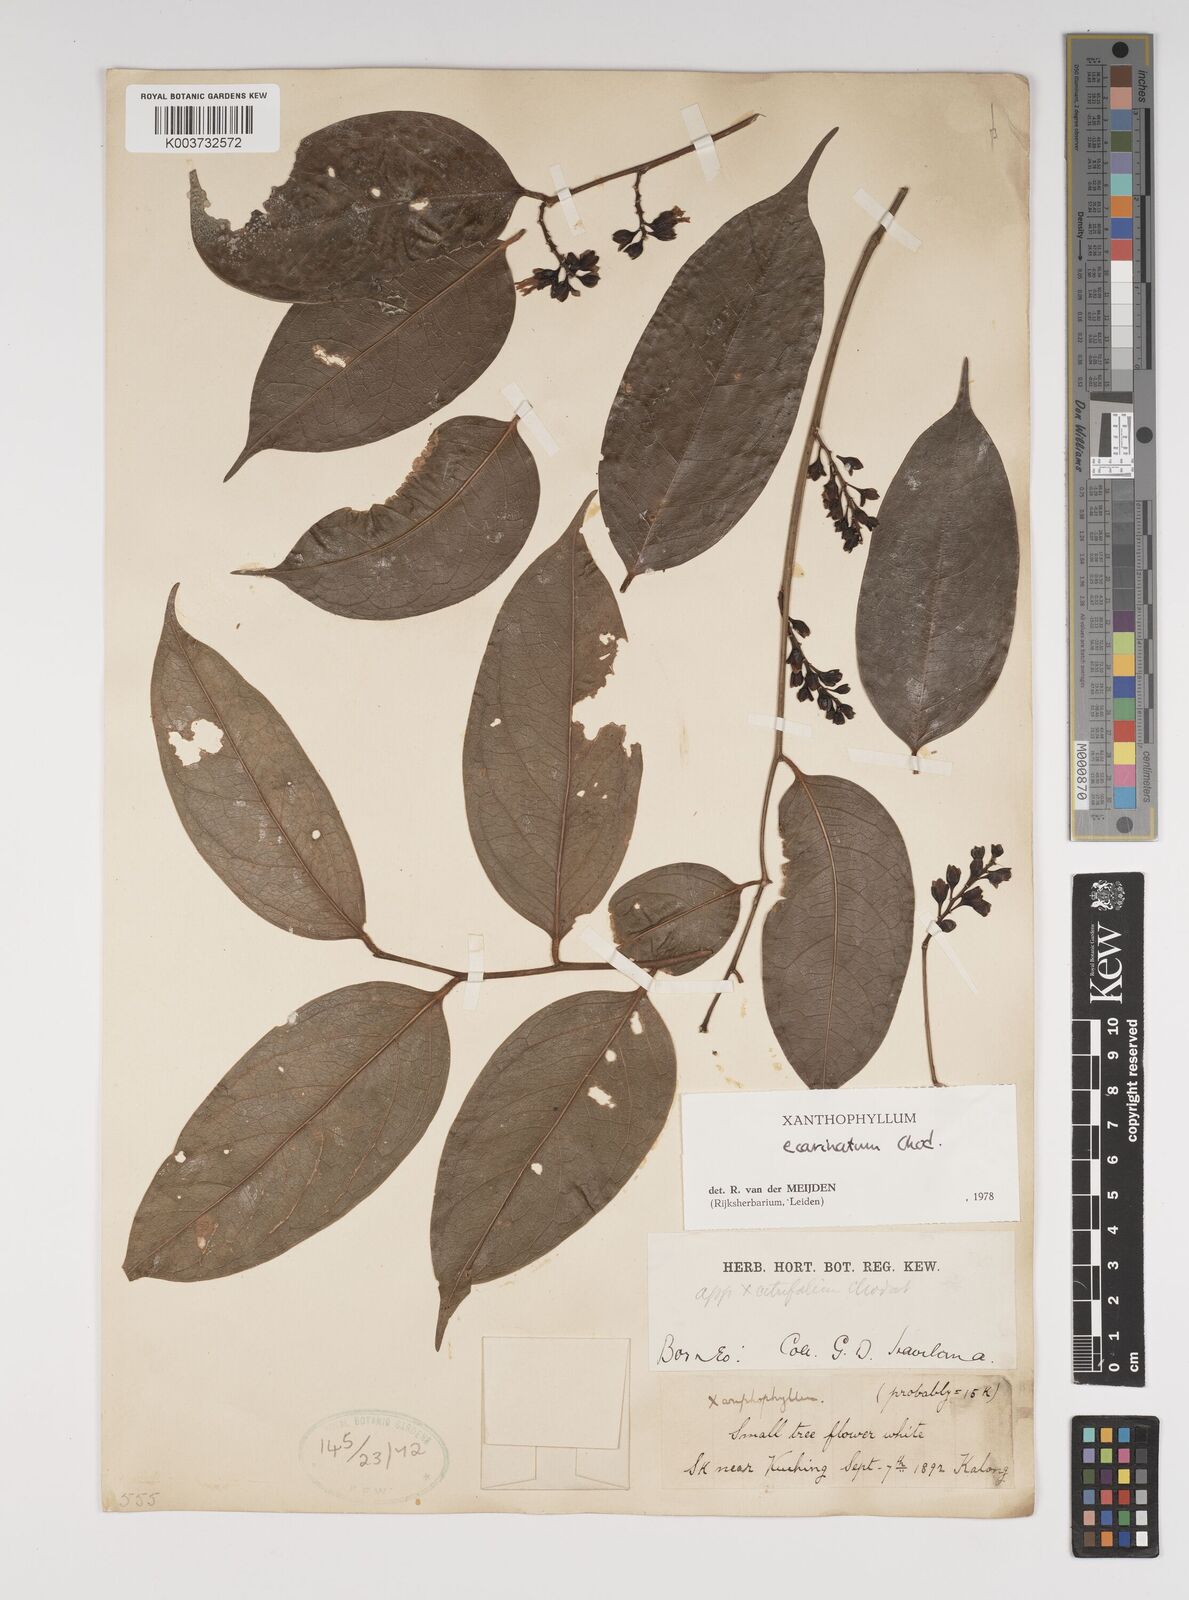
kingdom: Plantae
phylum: Tracheophyta
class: Magnoliopsida
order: Fabales
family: Polygalaceae
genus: Xanthophyllum
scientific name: Xanthophyllum ecarinatum
